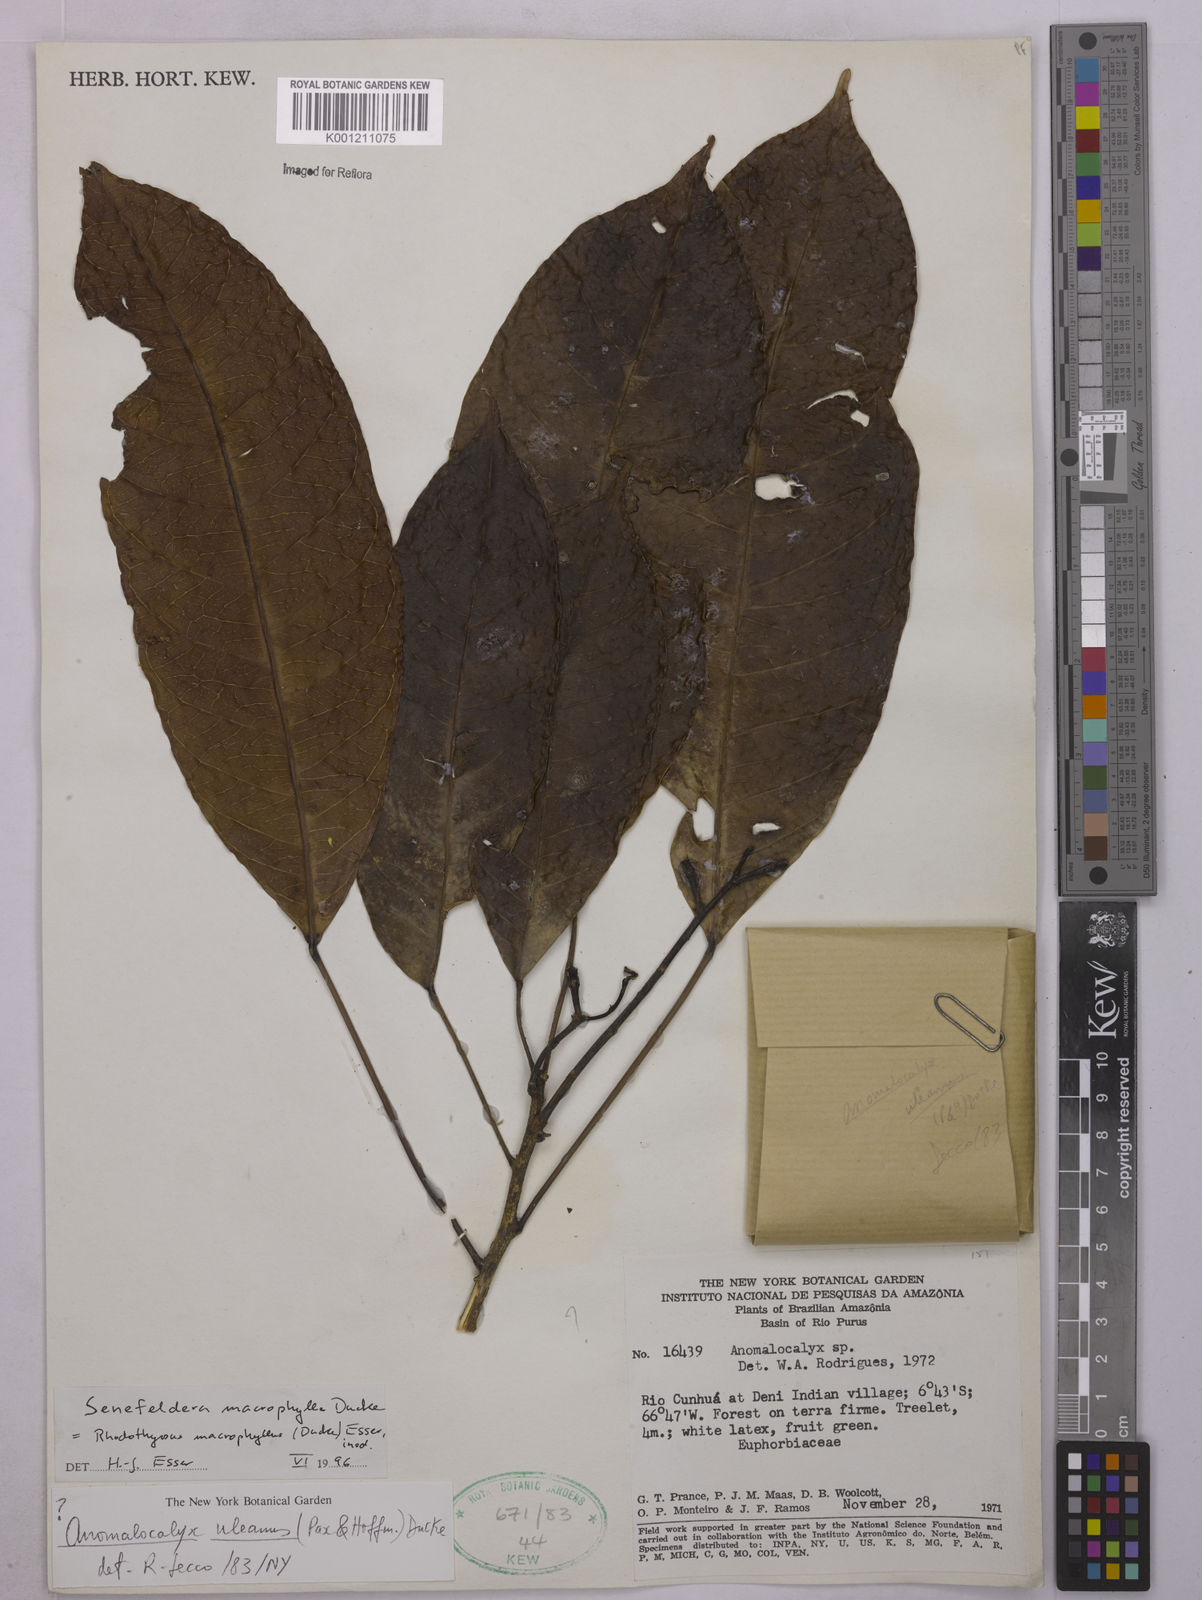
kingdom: Plantae
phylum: Tracheophyta
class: Magnoliopsida
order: Malpighiales
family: Euphorbiaceae
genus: Rhodothyrsus
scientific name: Rhodothyrsus macrophyllus
